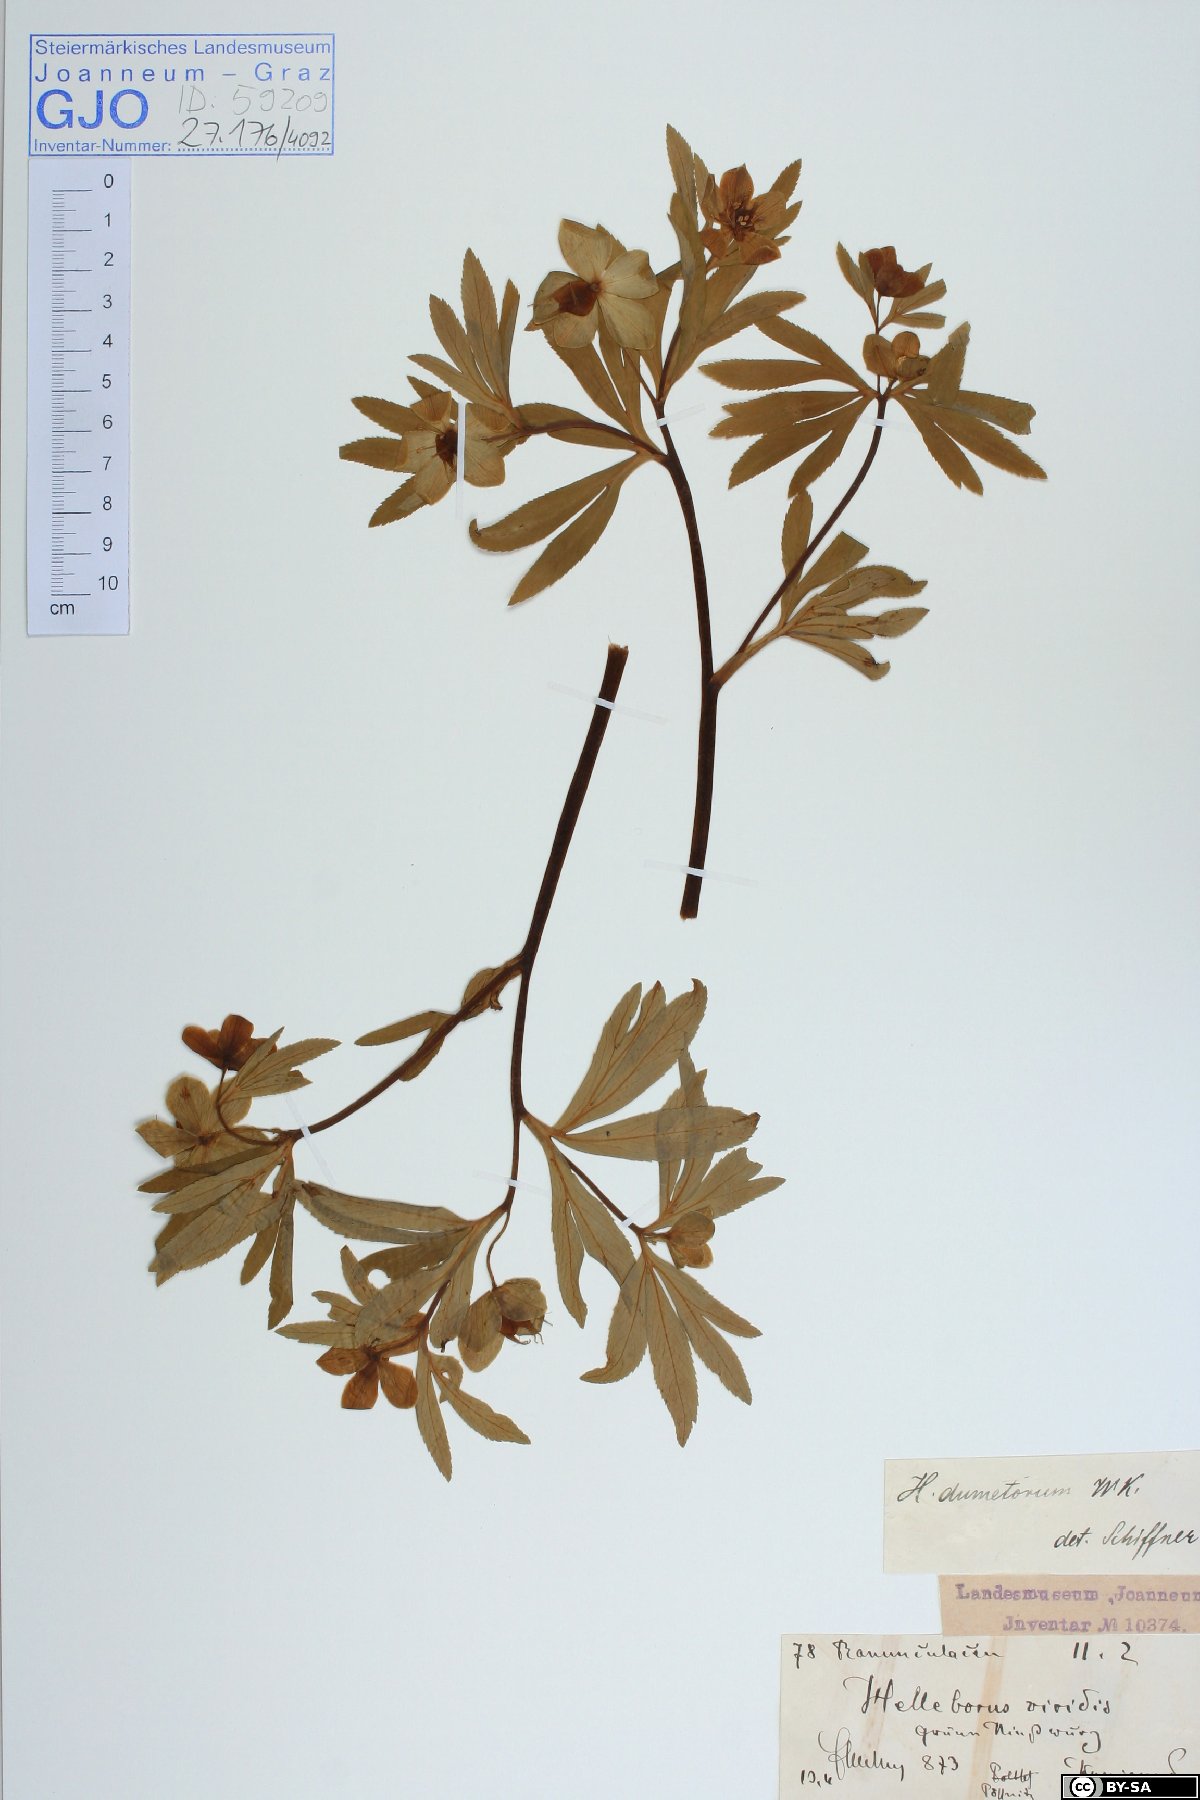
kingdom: Plantae
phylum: Tracheophyta
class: Magnoliopsida
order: Ranunculales
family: Ranunculaceae
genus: Helleborus
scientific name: Helleborus dumetorum
